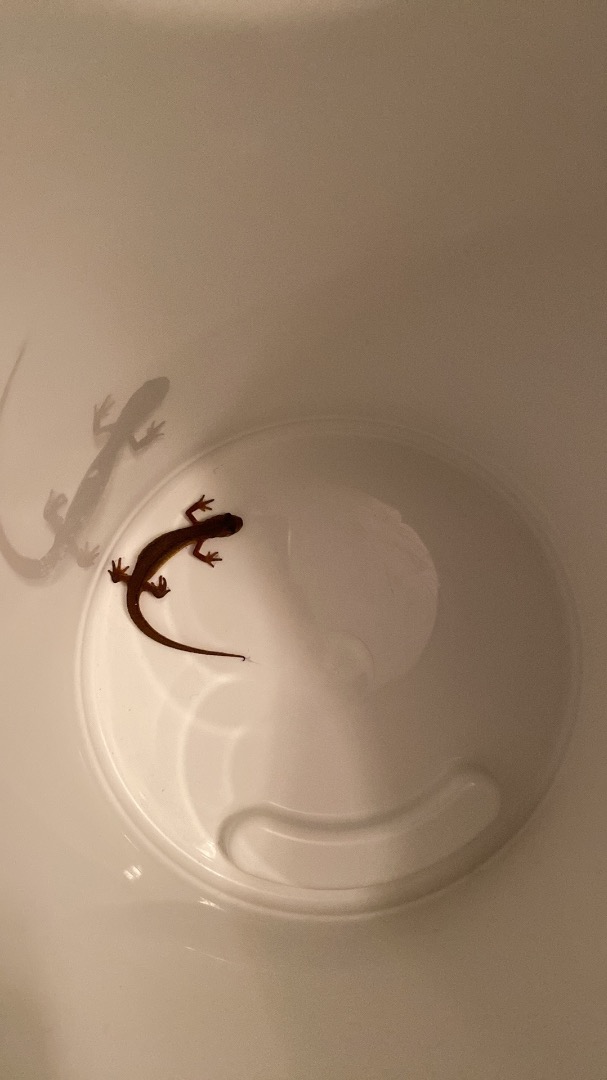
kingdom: Animalia
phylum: Chordata
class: Amphibia
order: Caudata
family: Salamandridae
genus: Lissotriton
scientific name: Lissotriton vulgaris
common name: Lille vandsalamander
